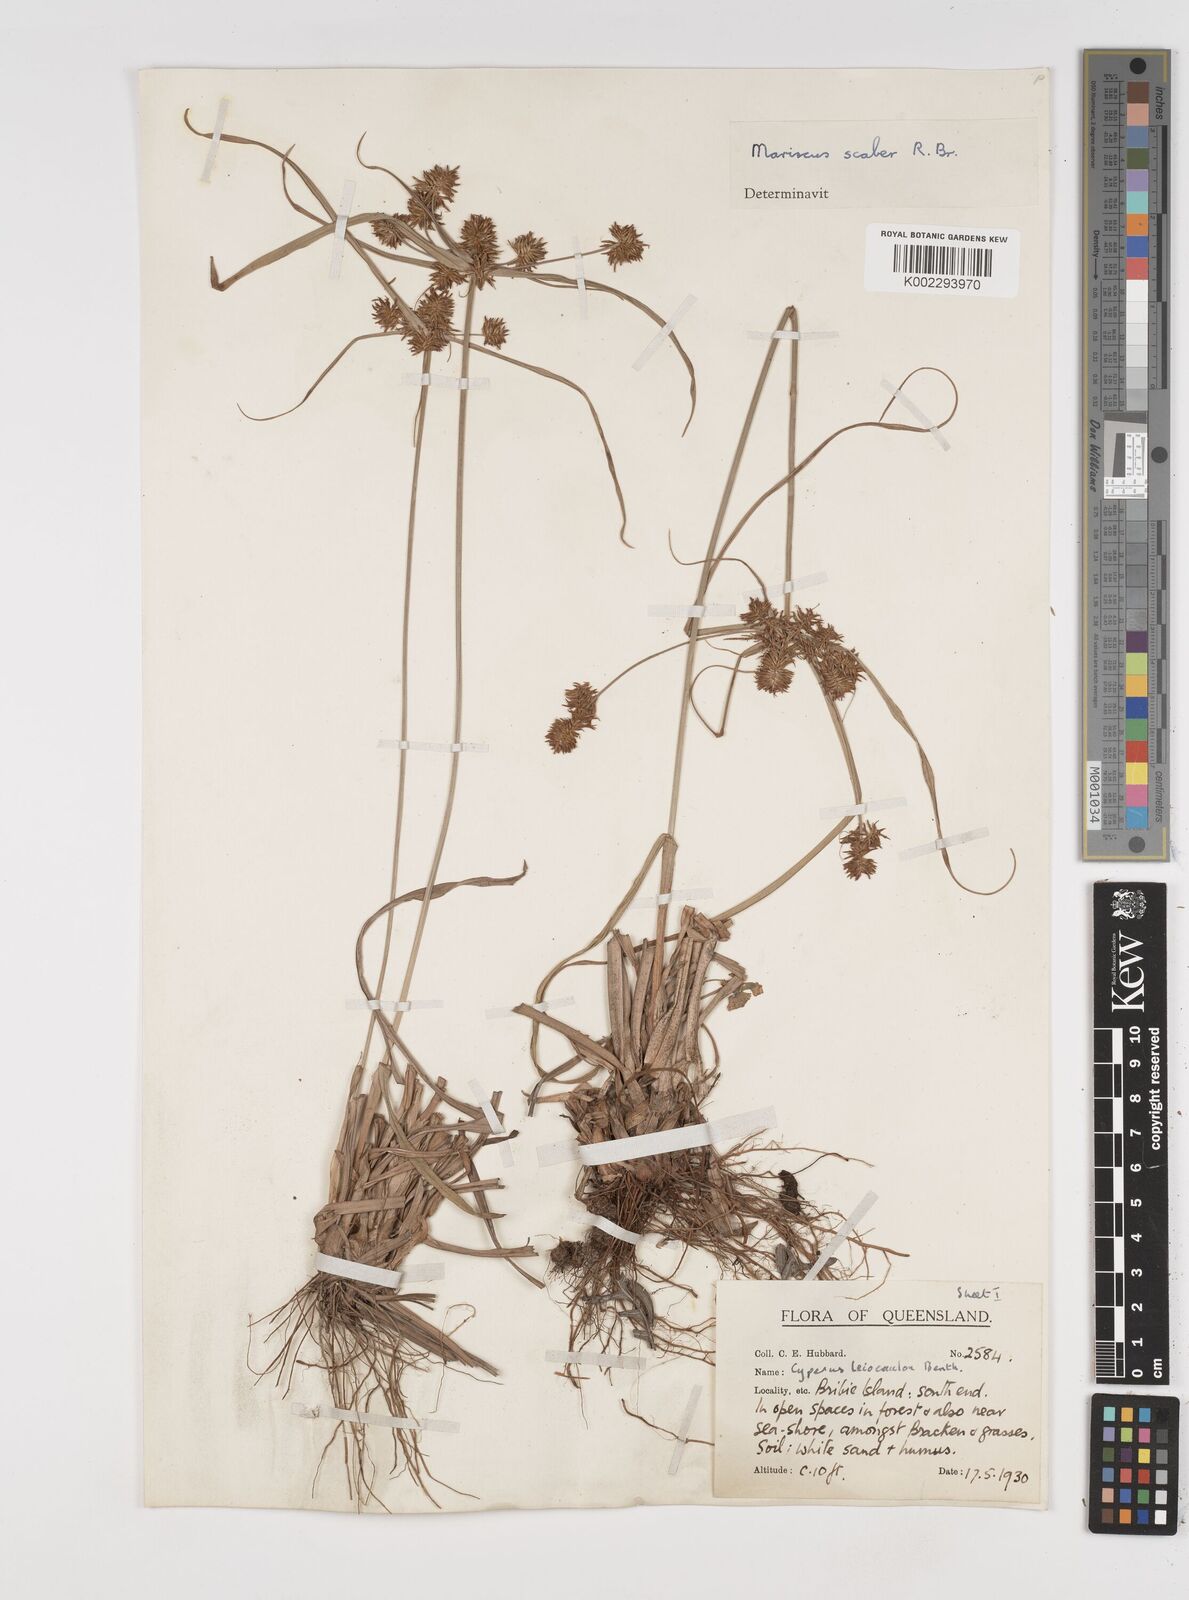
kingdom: Plantae
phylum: Tracheophyta
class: Liliopsida
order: Poales
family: Cyperaceae
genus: Cyperus
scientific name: Cyperus scaber
